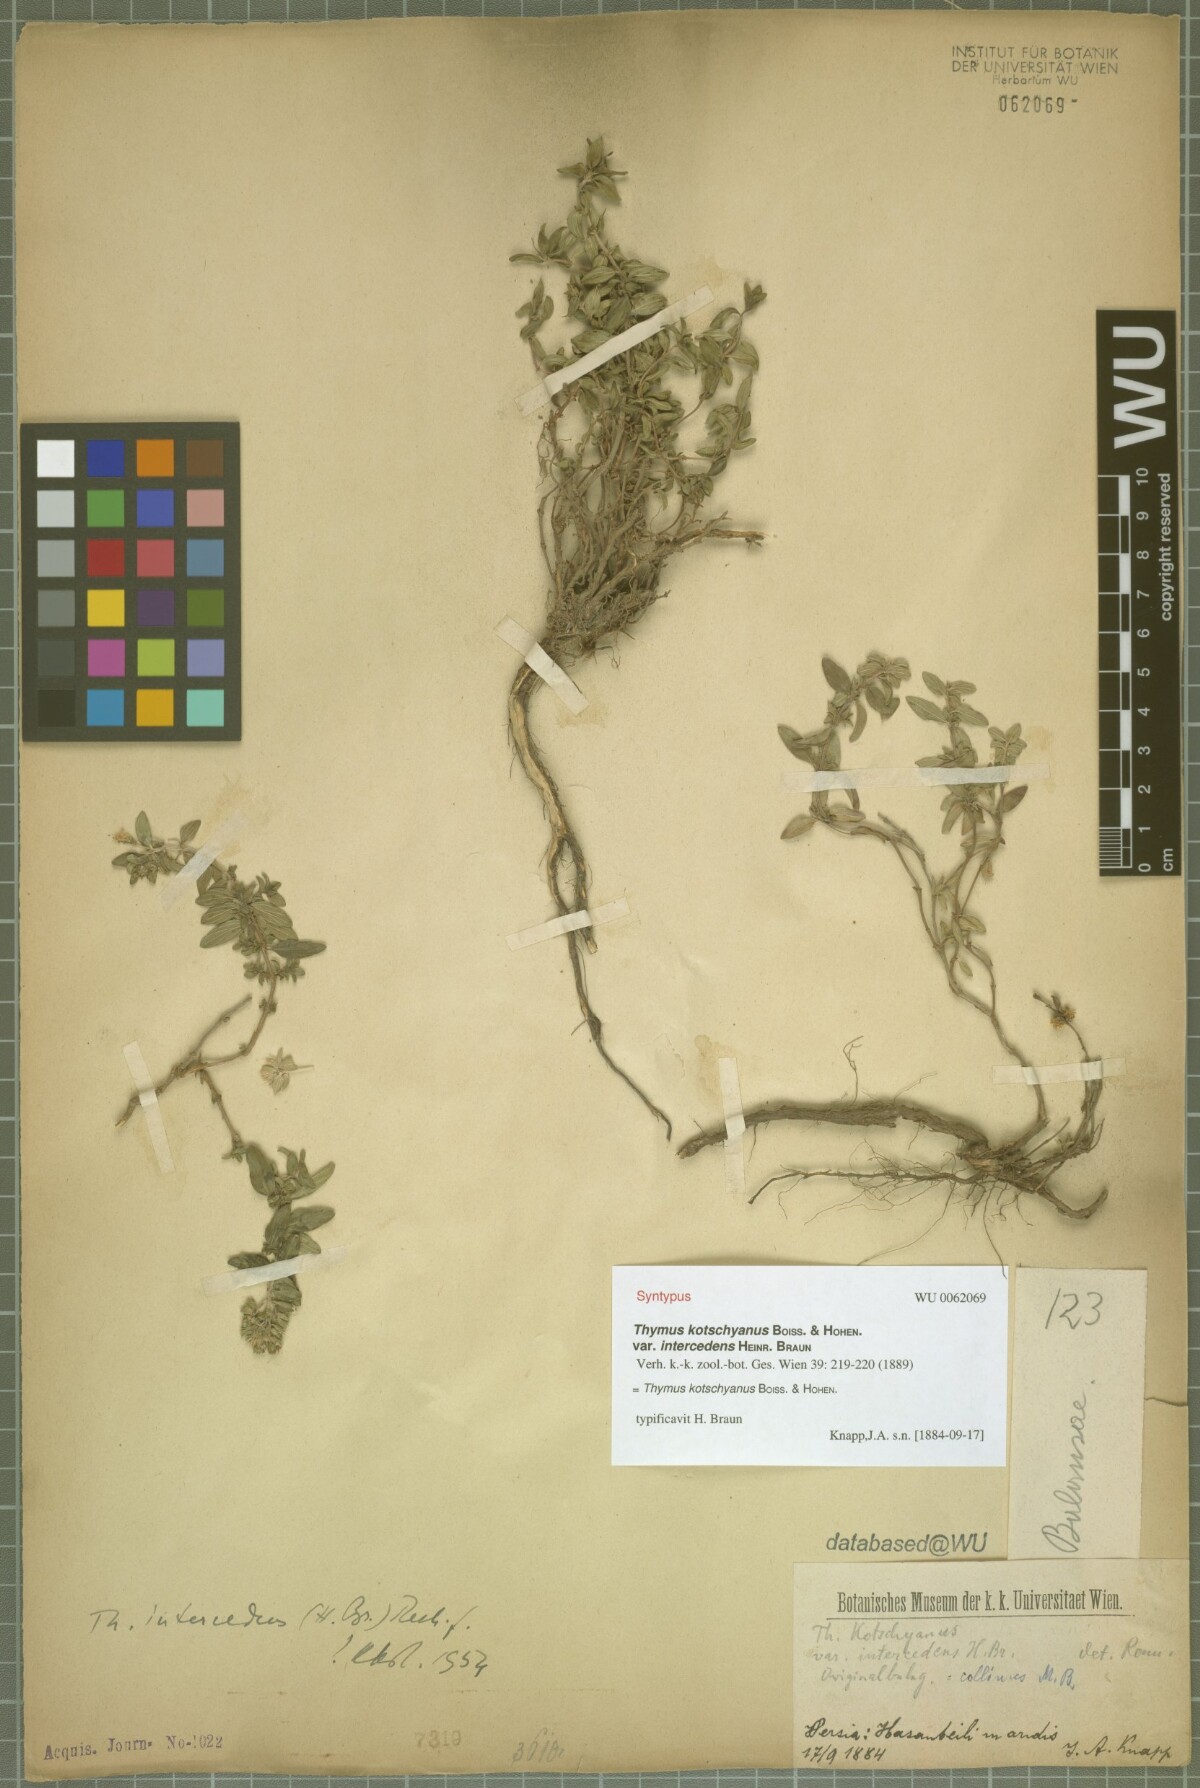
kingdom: Plantae
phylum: Tracheophyta
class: Magnoliopsida
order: Lamiales
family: Lamiaceae
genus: Thymus
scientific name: Thymus kotschyanus
